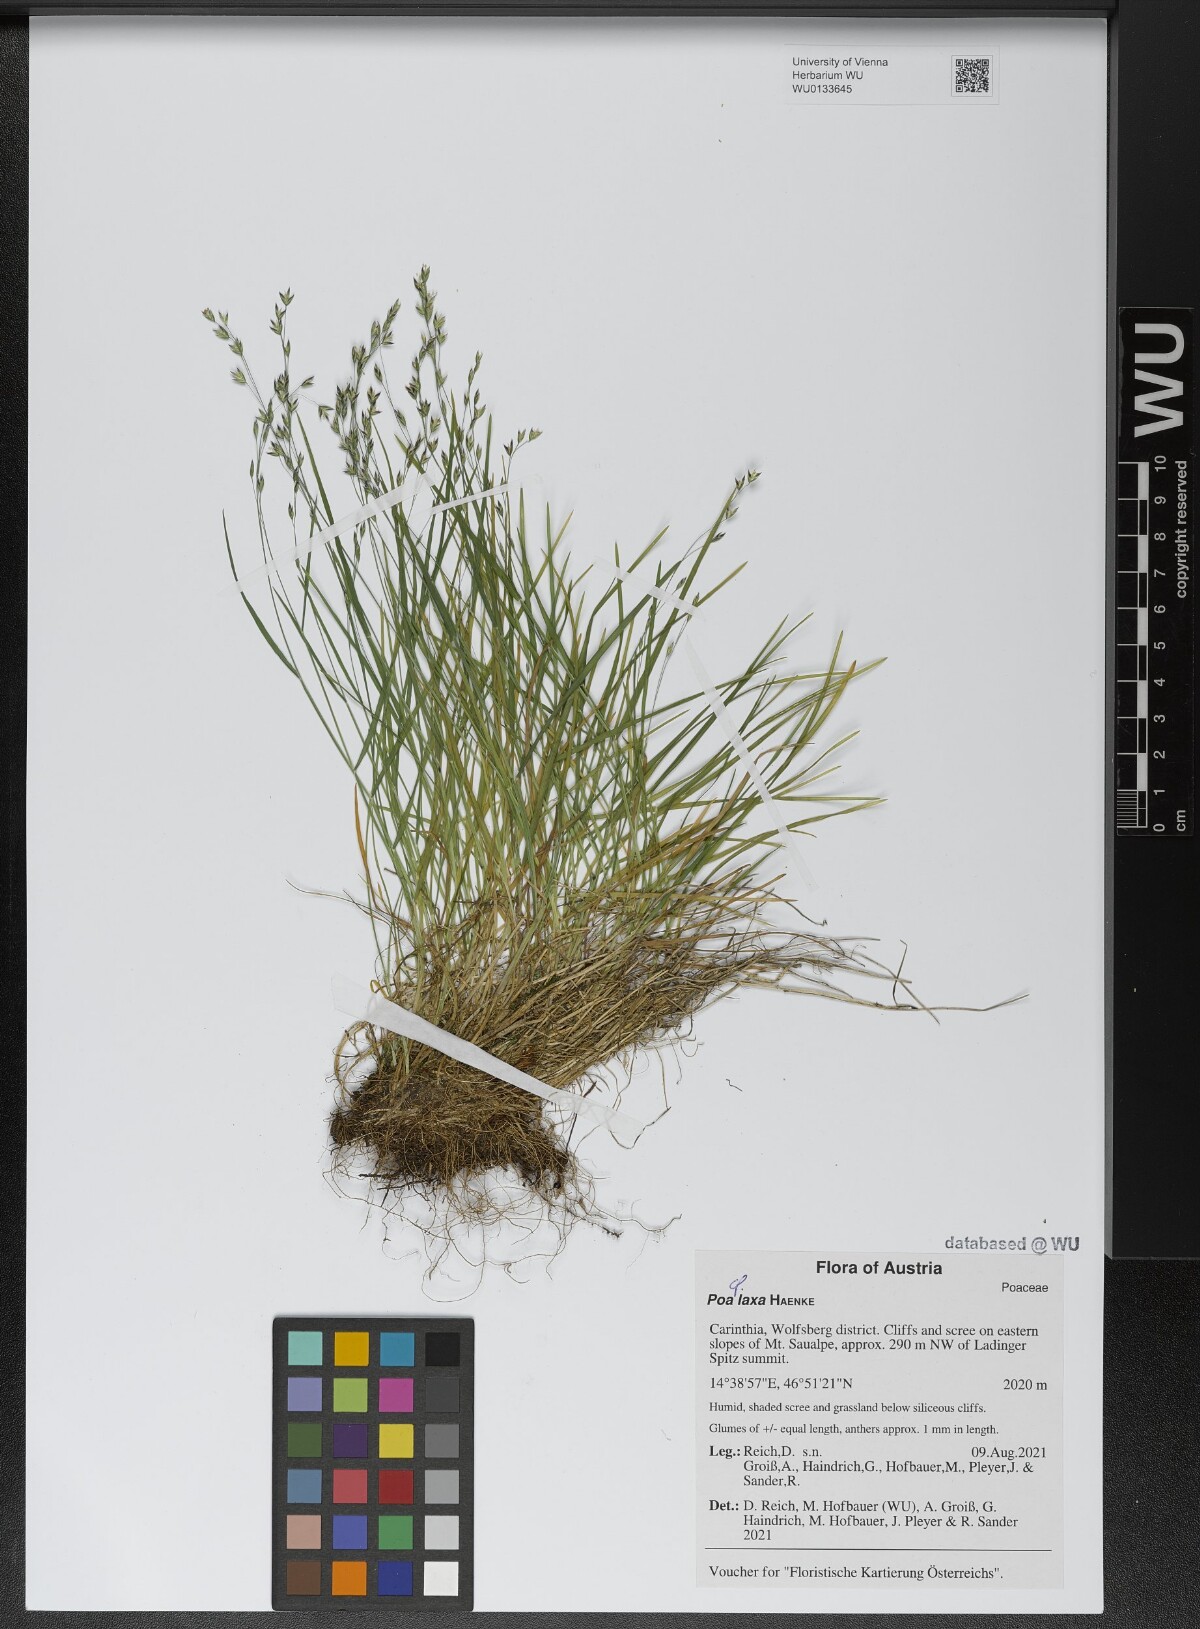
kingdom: Plantae
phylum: Tracheophyta
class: Liliopsida
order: Poales
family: Poaceae
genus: Poa
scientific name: Poa laxa
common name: Lax bluegrass
